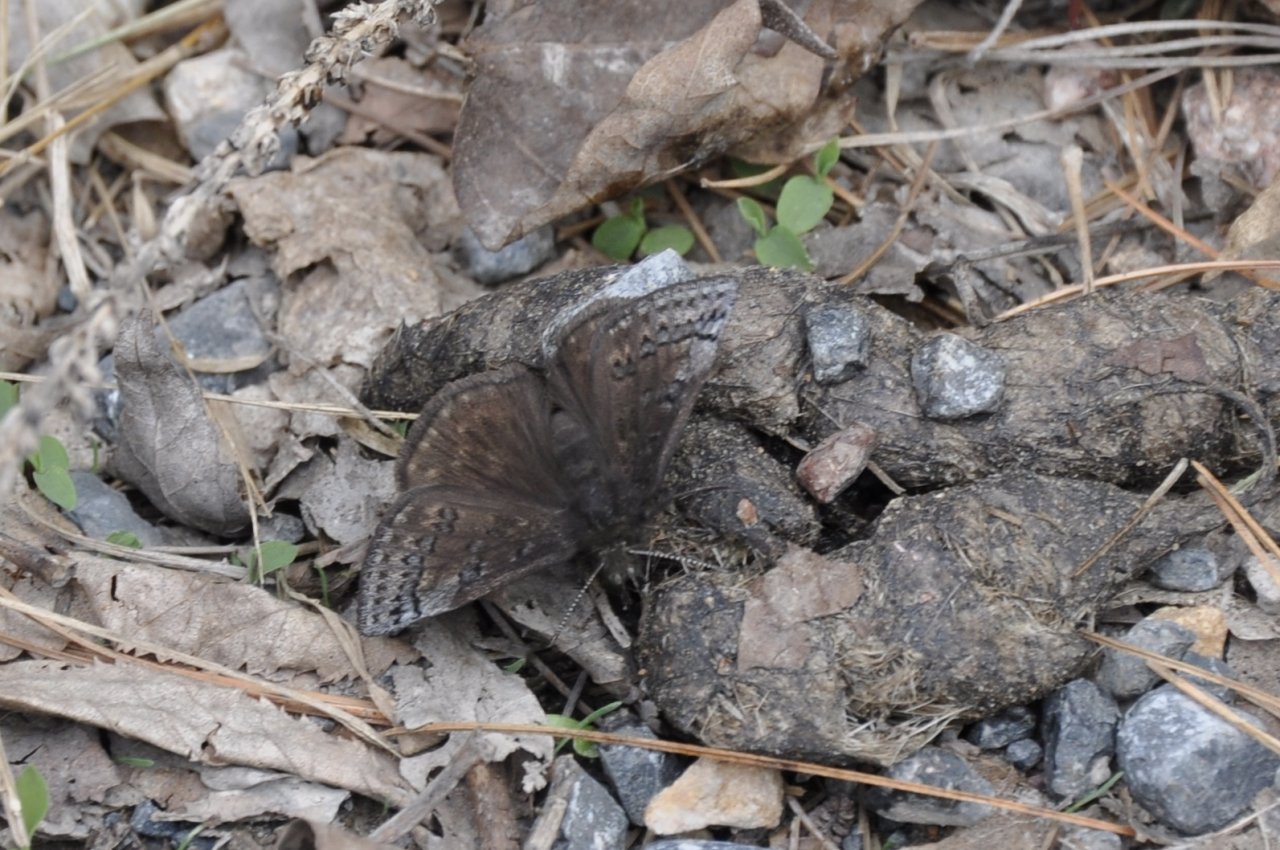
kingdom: Animalia
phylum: Arthropoda
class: Insecta
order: Lepidoptera
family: Hesperiidae
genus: Erynnis
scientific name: Erynnis brizo
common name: Sleepy Duskywing
